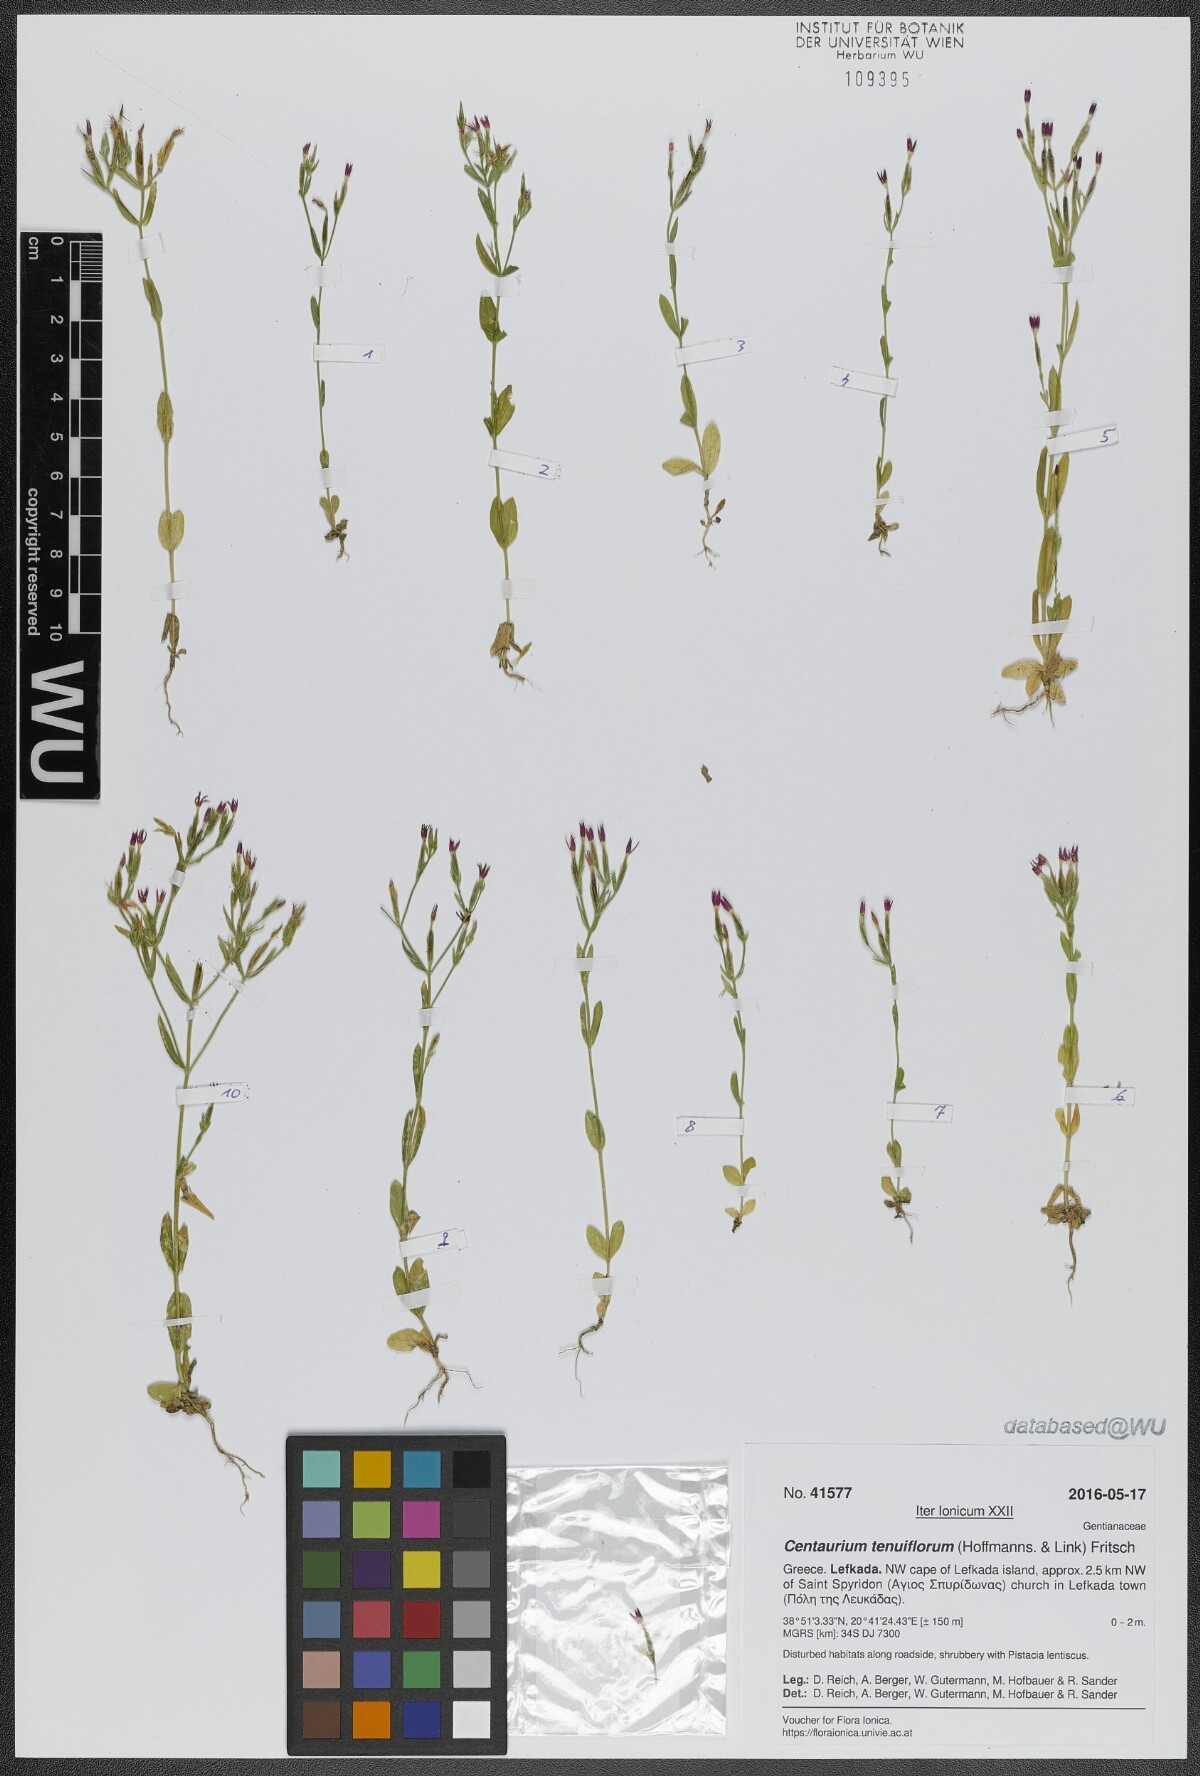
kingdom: Plantae
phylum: Tracheophyta
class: Magnoliopsida
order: Gentianales
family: Gentianaceae
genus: Centaurium
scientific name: Centaurium tenuiflorum
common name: Slender centaury
